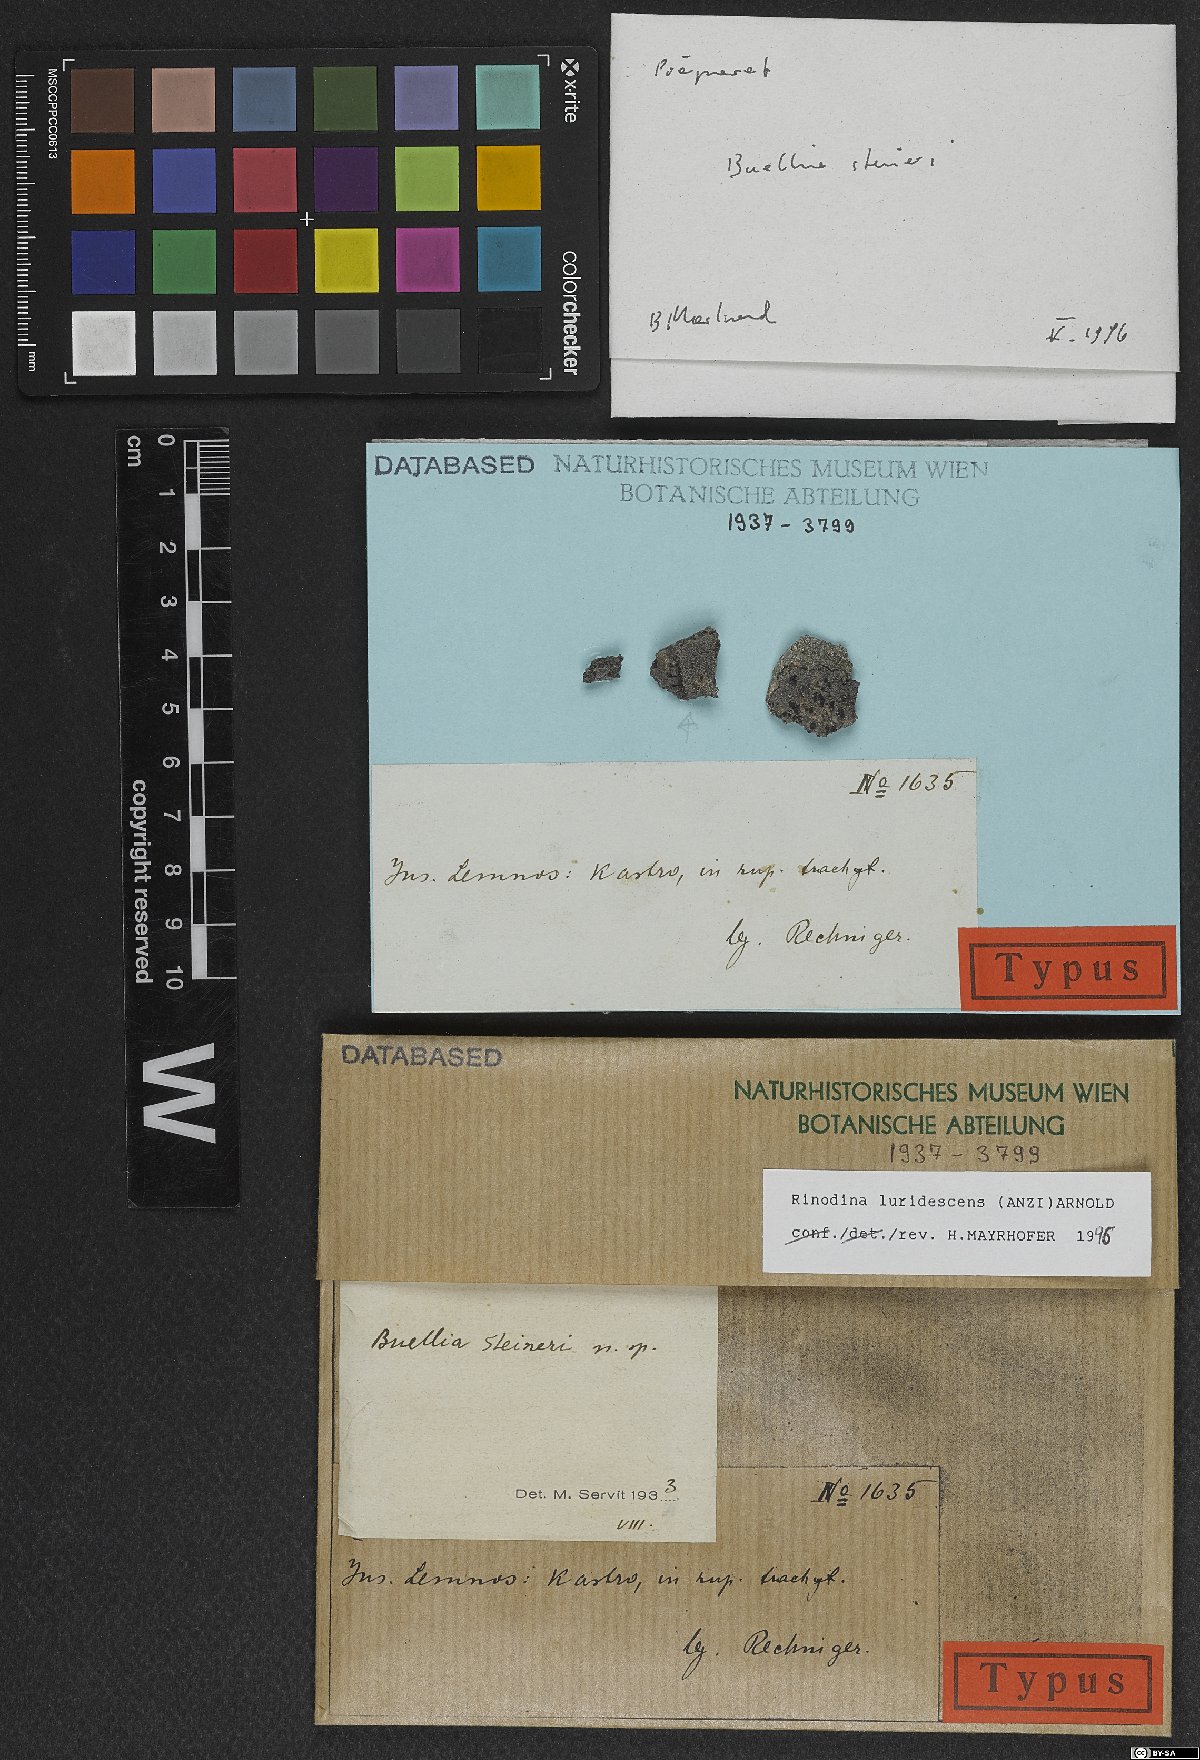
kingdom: Fungi
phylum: Ascomycota
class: Lecanoromycetes
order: Caliciales
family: Physciaceae
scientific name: Physciaceae
